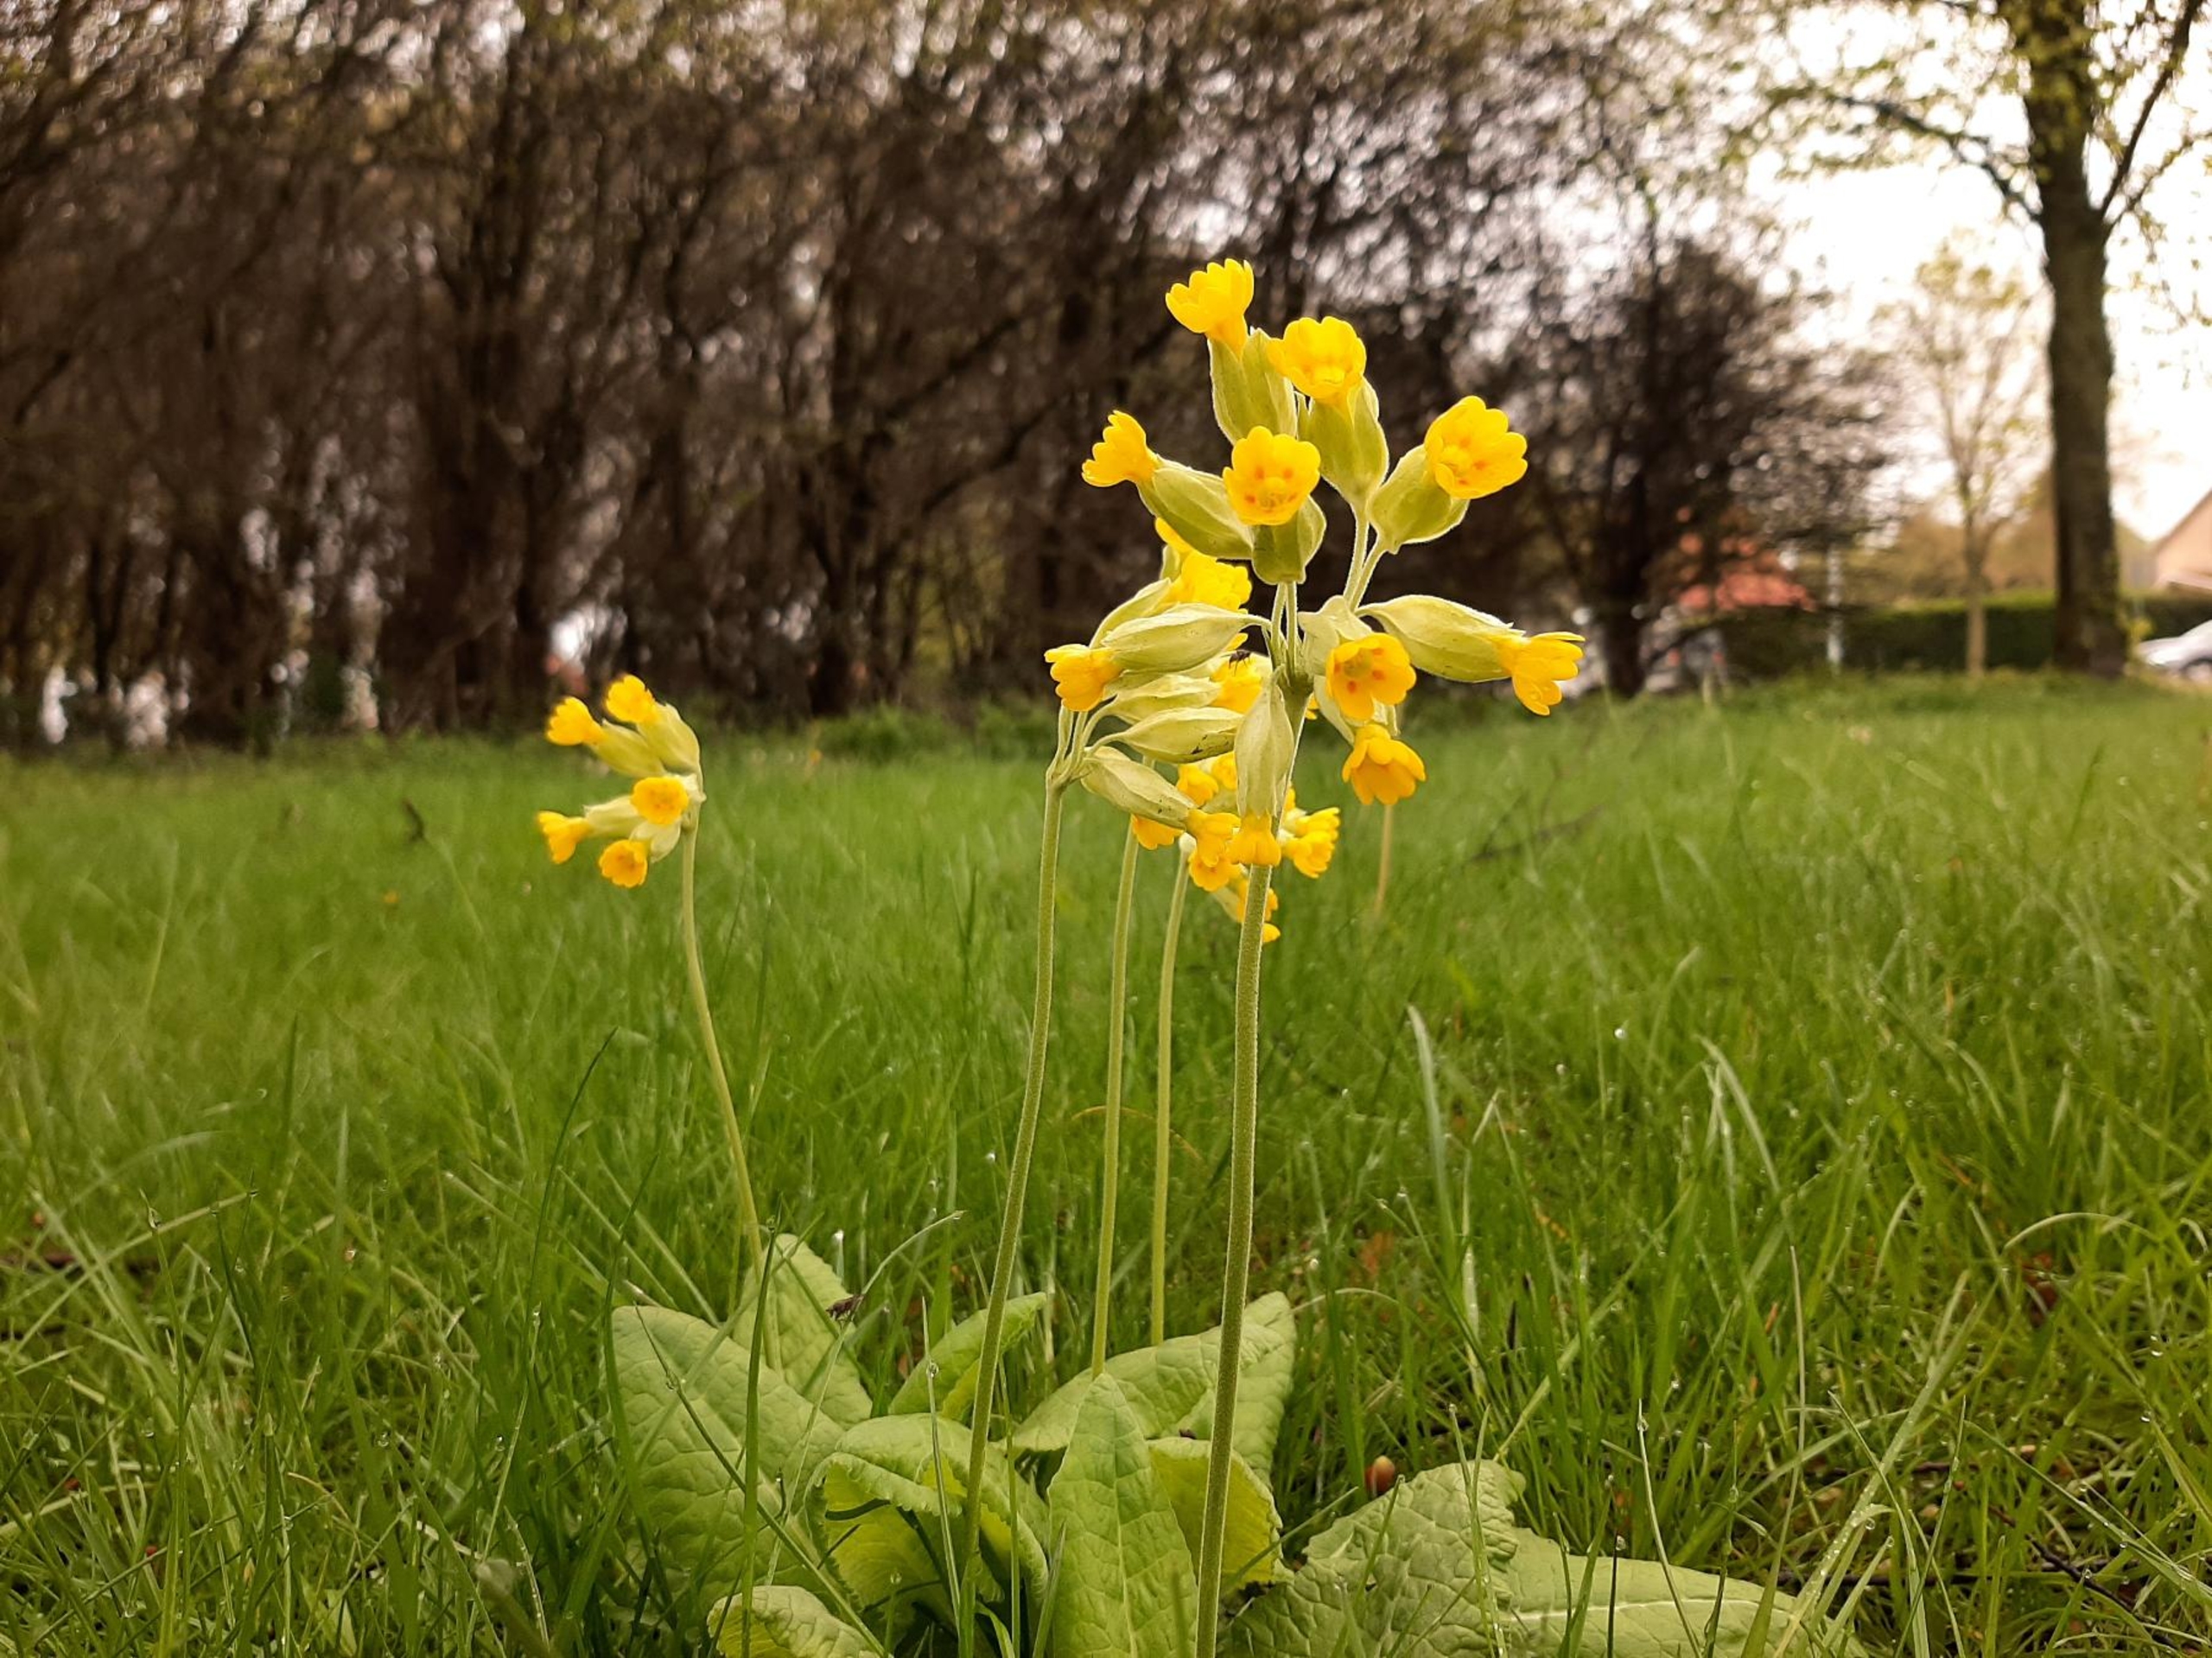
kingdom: Plantae
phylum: Tracheophyta
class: Magnoliopsida
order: Ericales
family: Primulaceae
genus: Primula
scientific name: Primula veris
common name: Hulkravet kodriver
